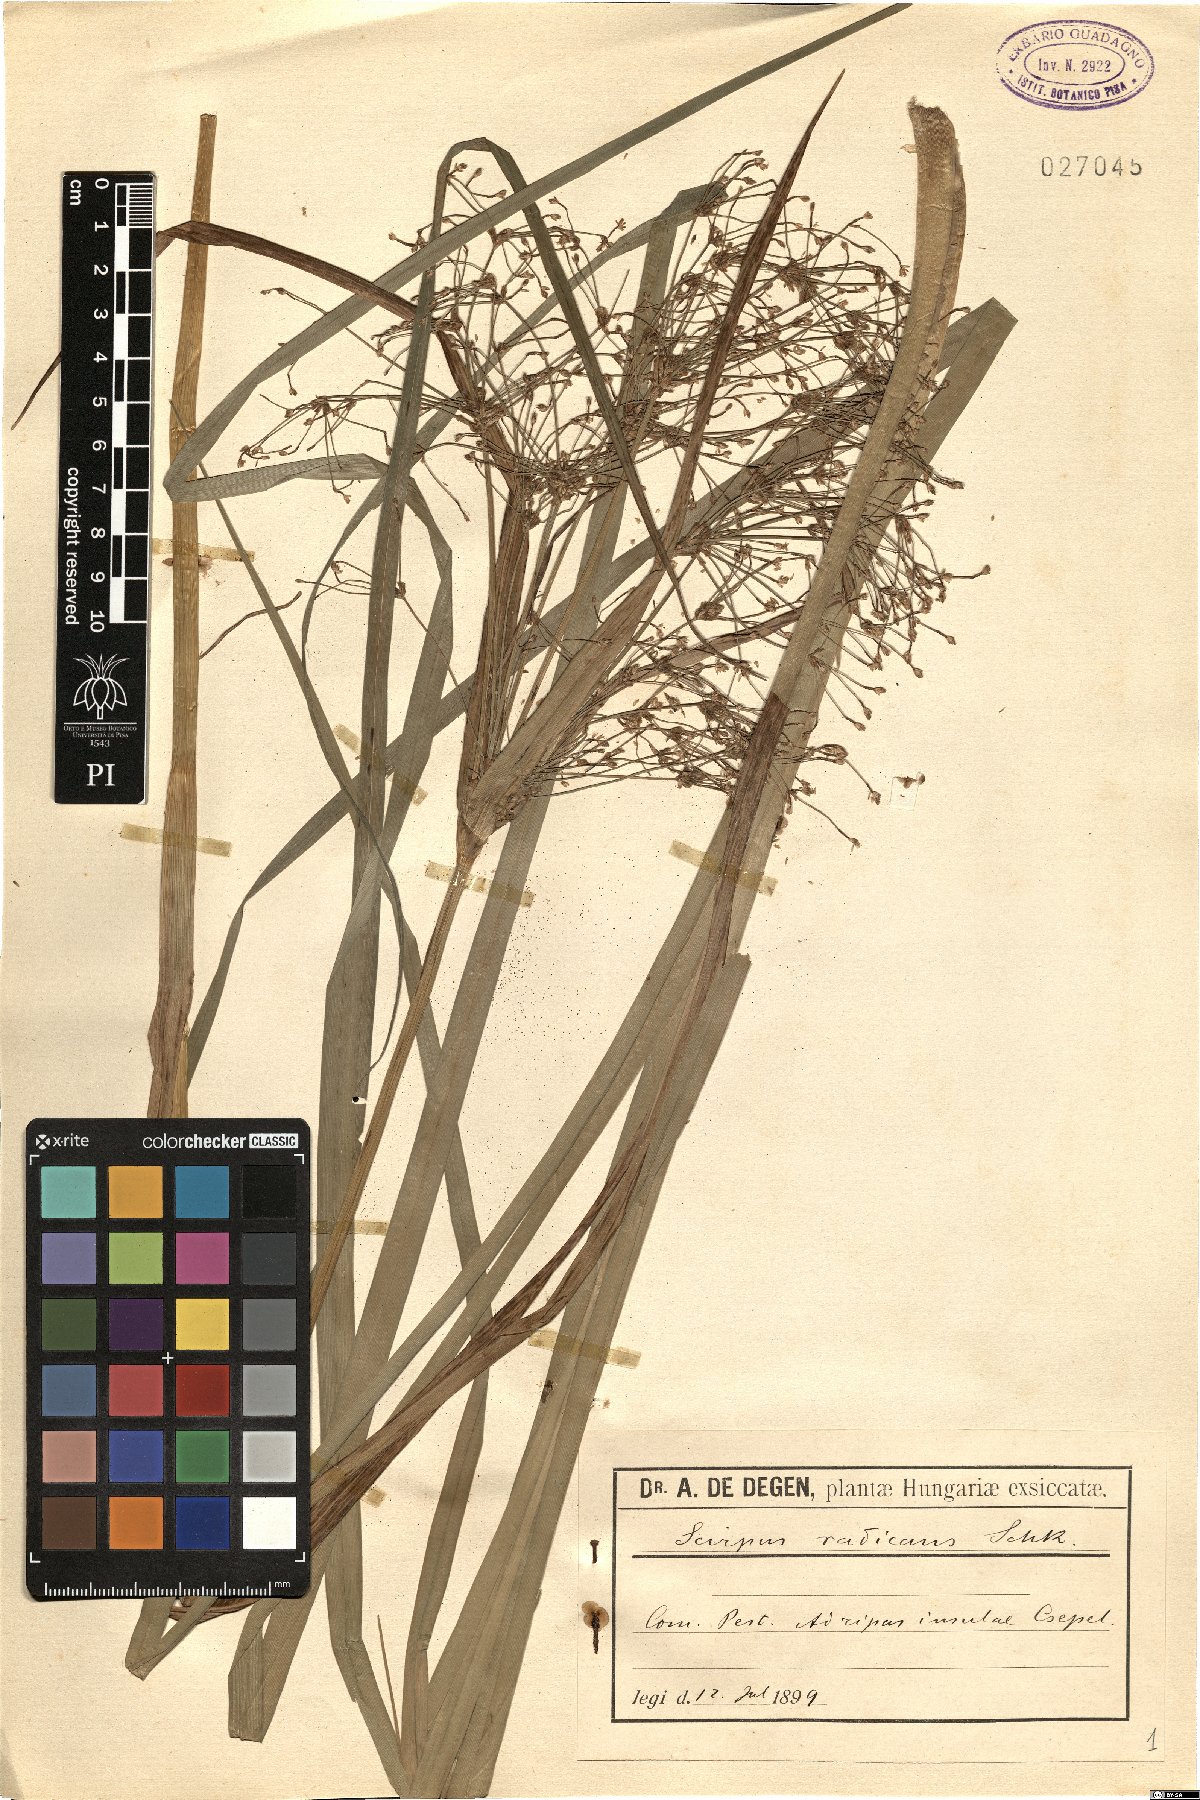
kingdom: Plantae
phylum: Tracheophyta
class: Liliopsida
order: Poales
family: Cyperaceae
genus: Scirpus
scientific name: Scirpus radicans
